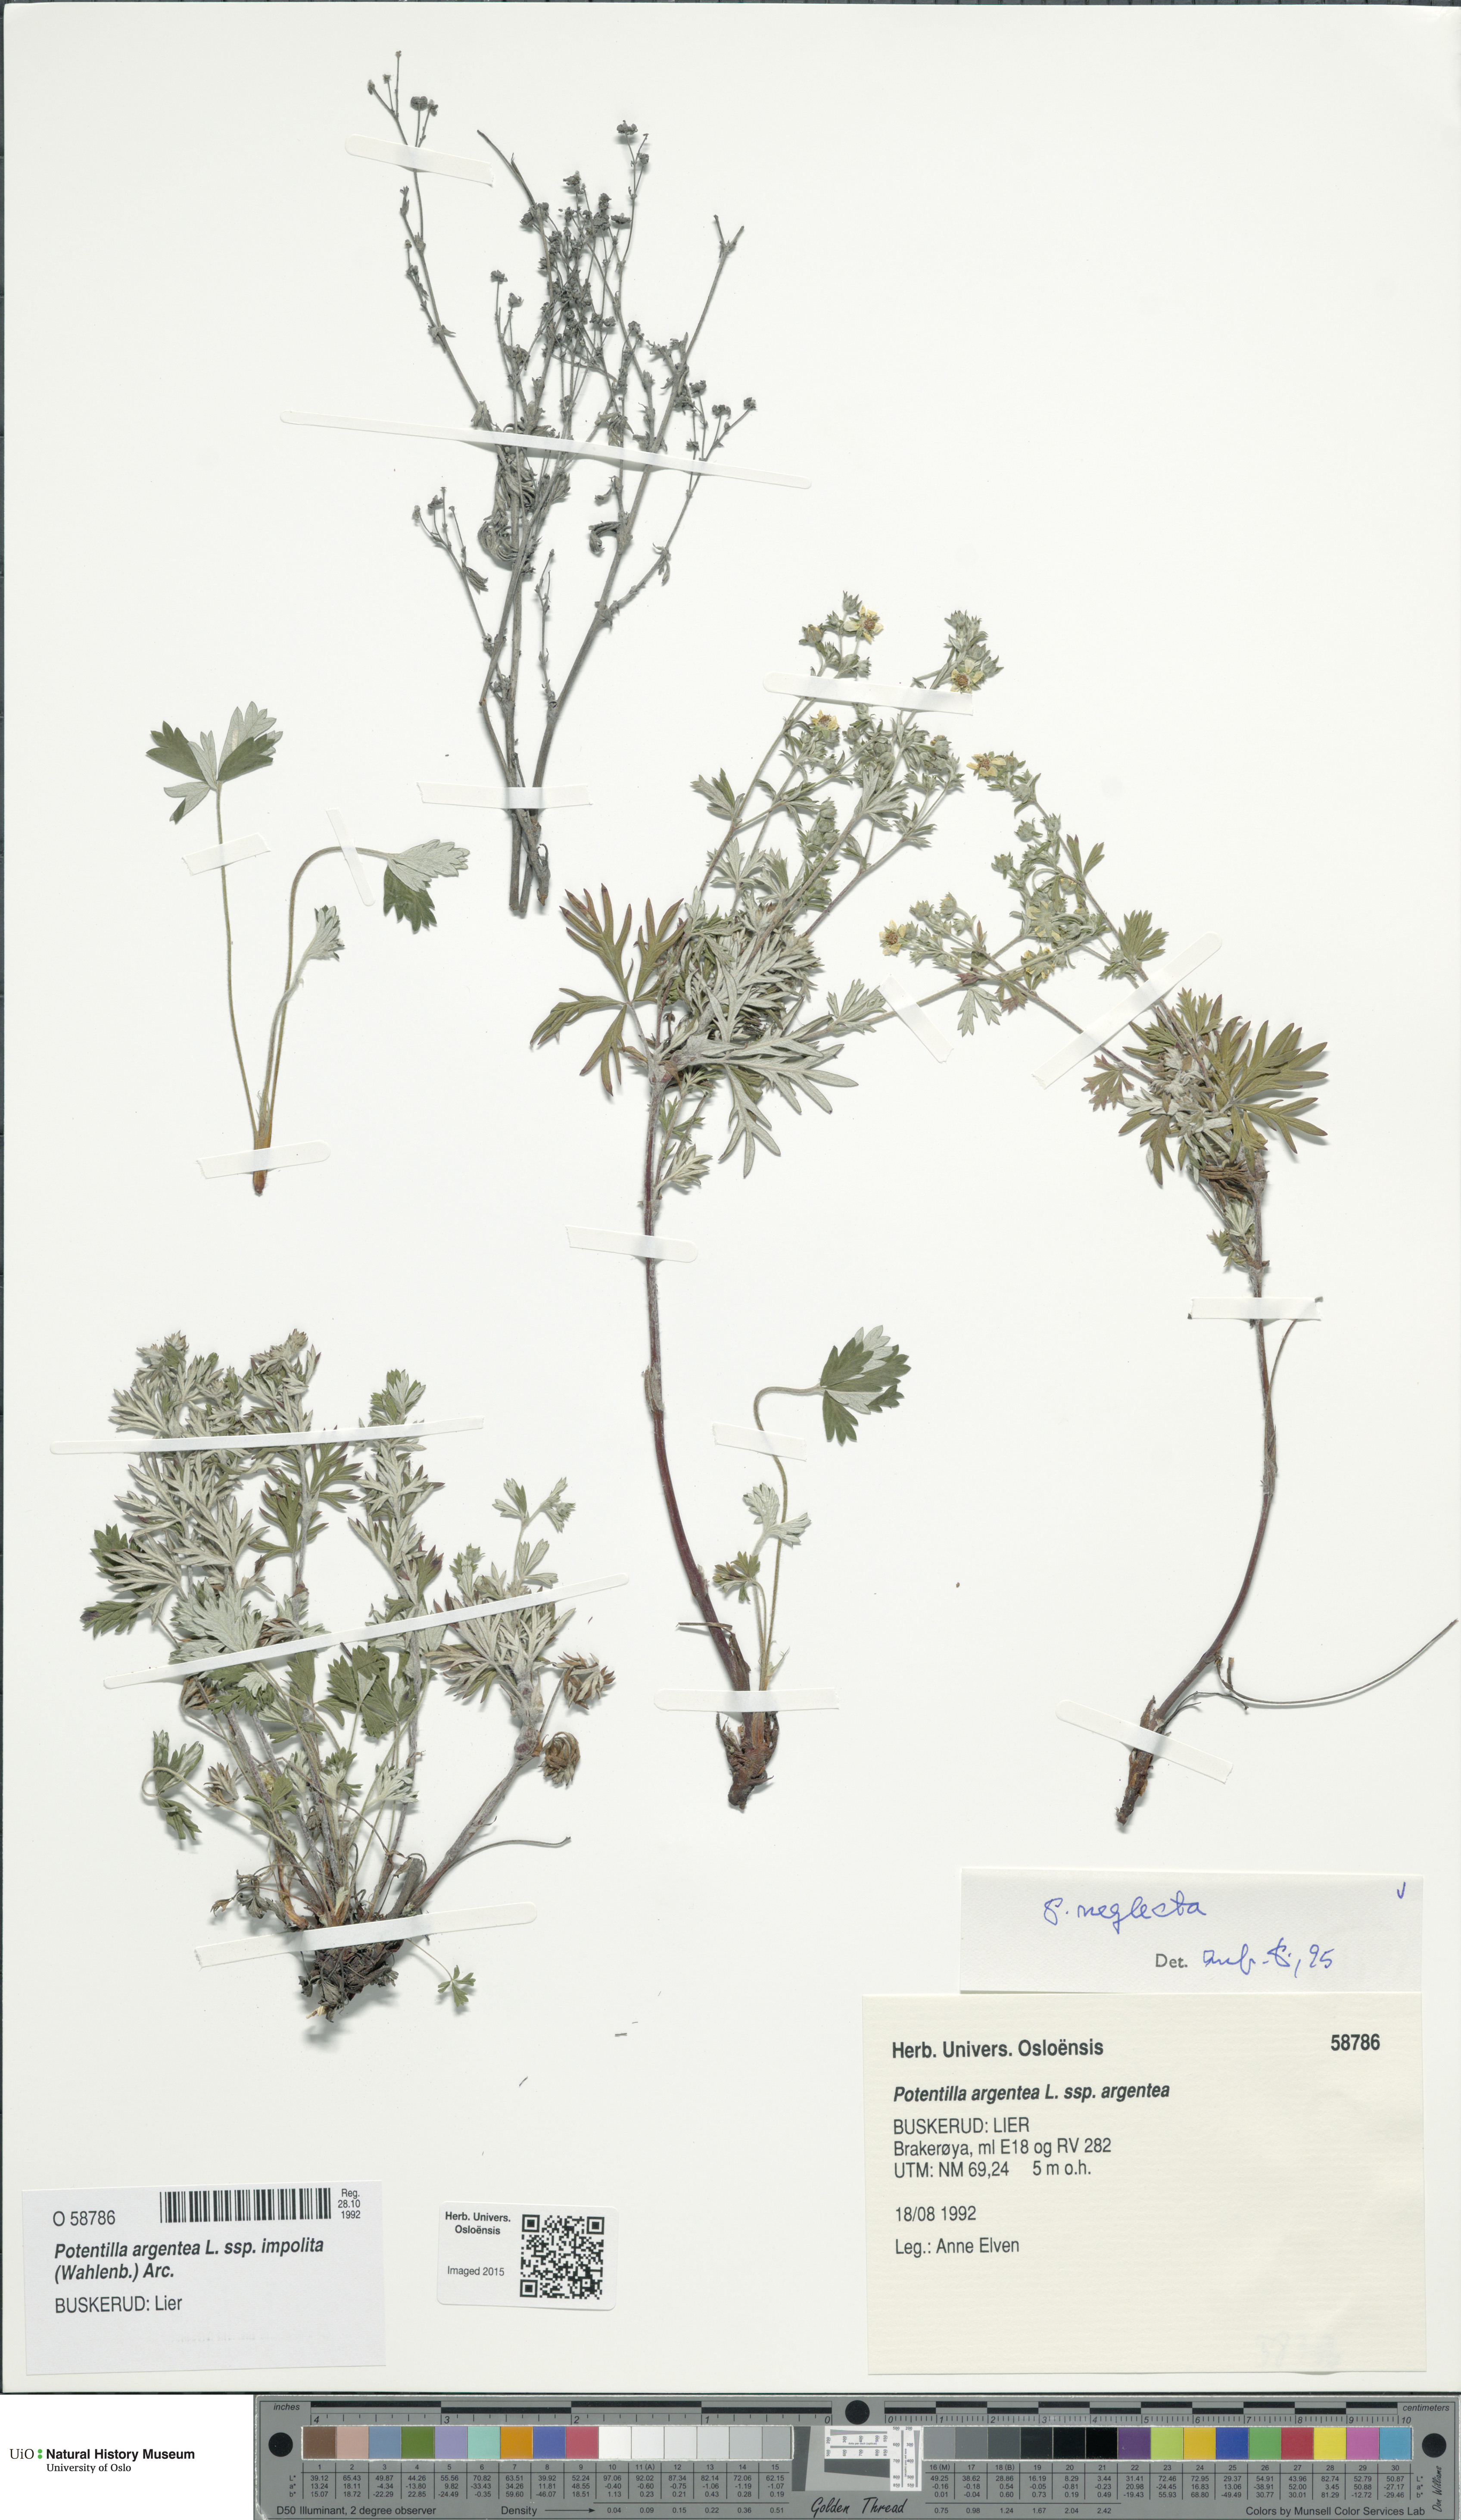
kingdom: Plantae
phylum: Tracheophyta
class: Magnoliopsida
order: Rosales
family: Rosaceae
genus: Potentilla
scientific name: Potentilla neglecta
